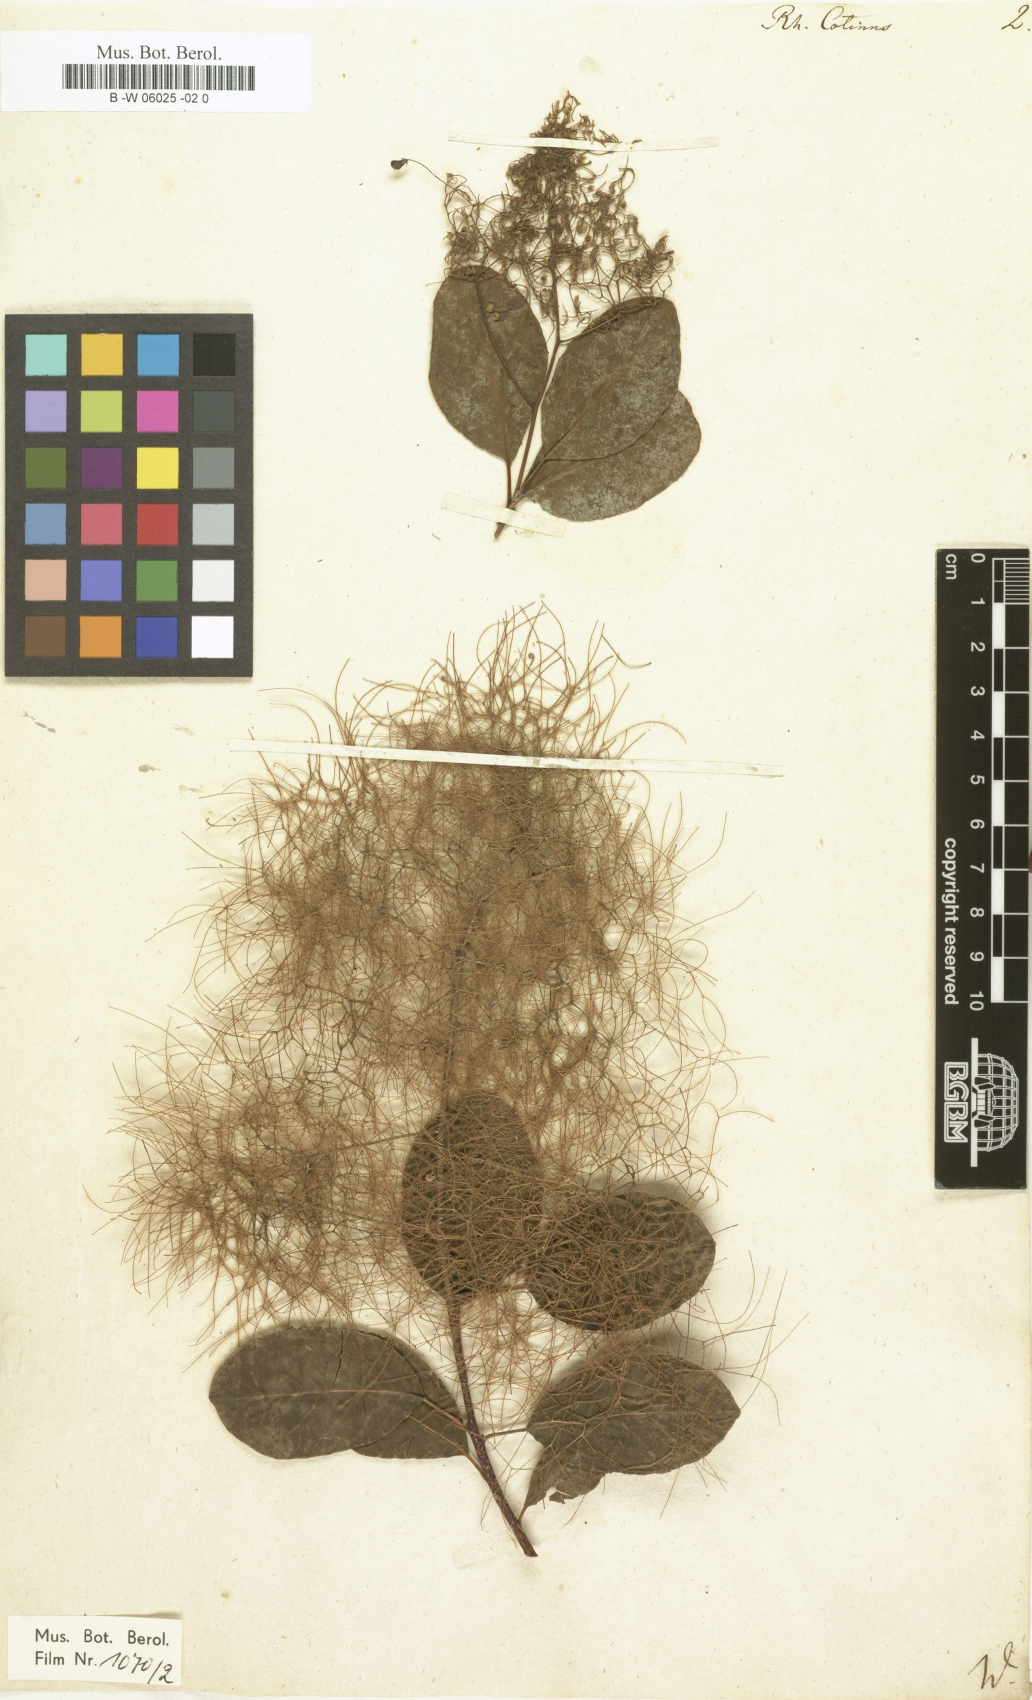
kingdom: Plantae
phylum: Tracheophyta
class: Magnoliopsida
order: Sapindales
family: Anacardiaceae
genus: Cotinus
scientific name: Cotinus
